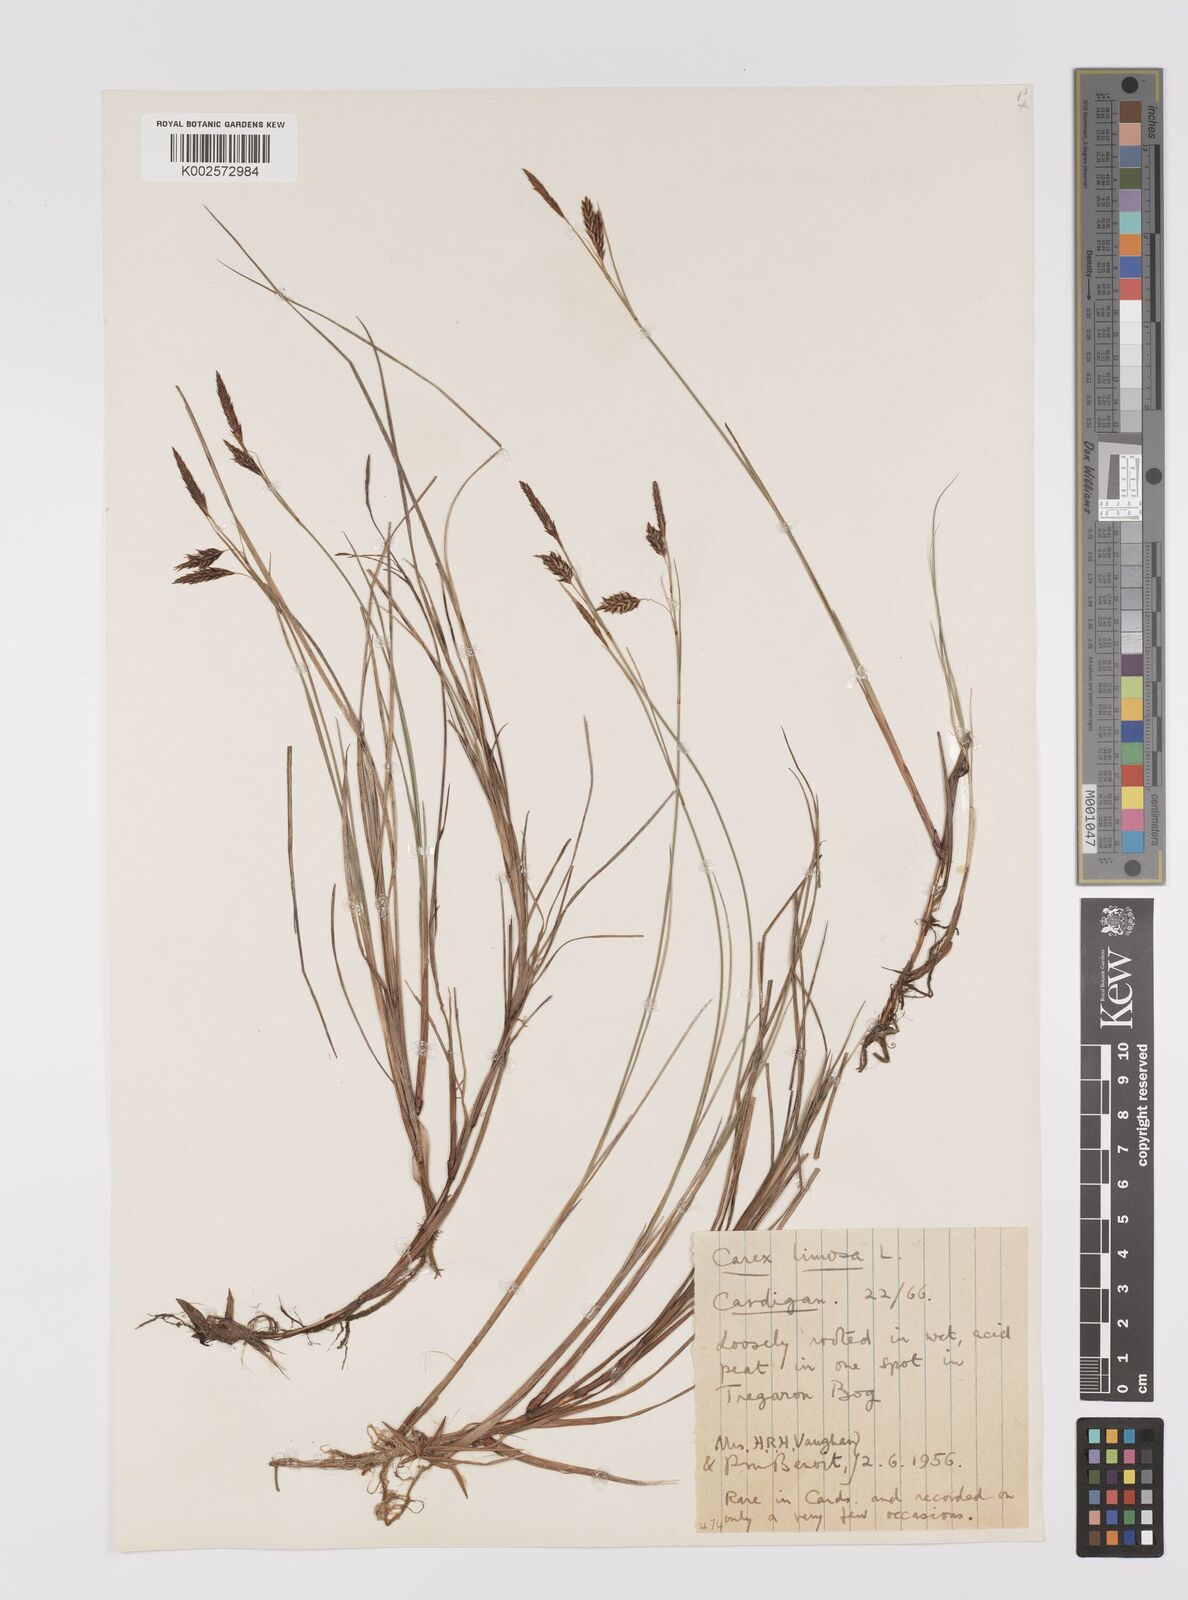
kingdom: Plantae
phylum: Tracheophyta
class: Liliopsida
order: Poales
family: Cyperaceae
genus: Carex
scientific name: Carex limosa
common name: Bog sedge
